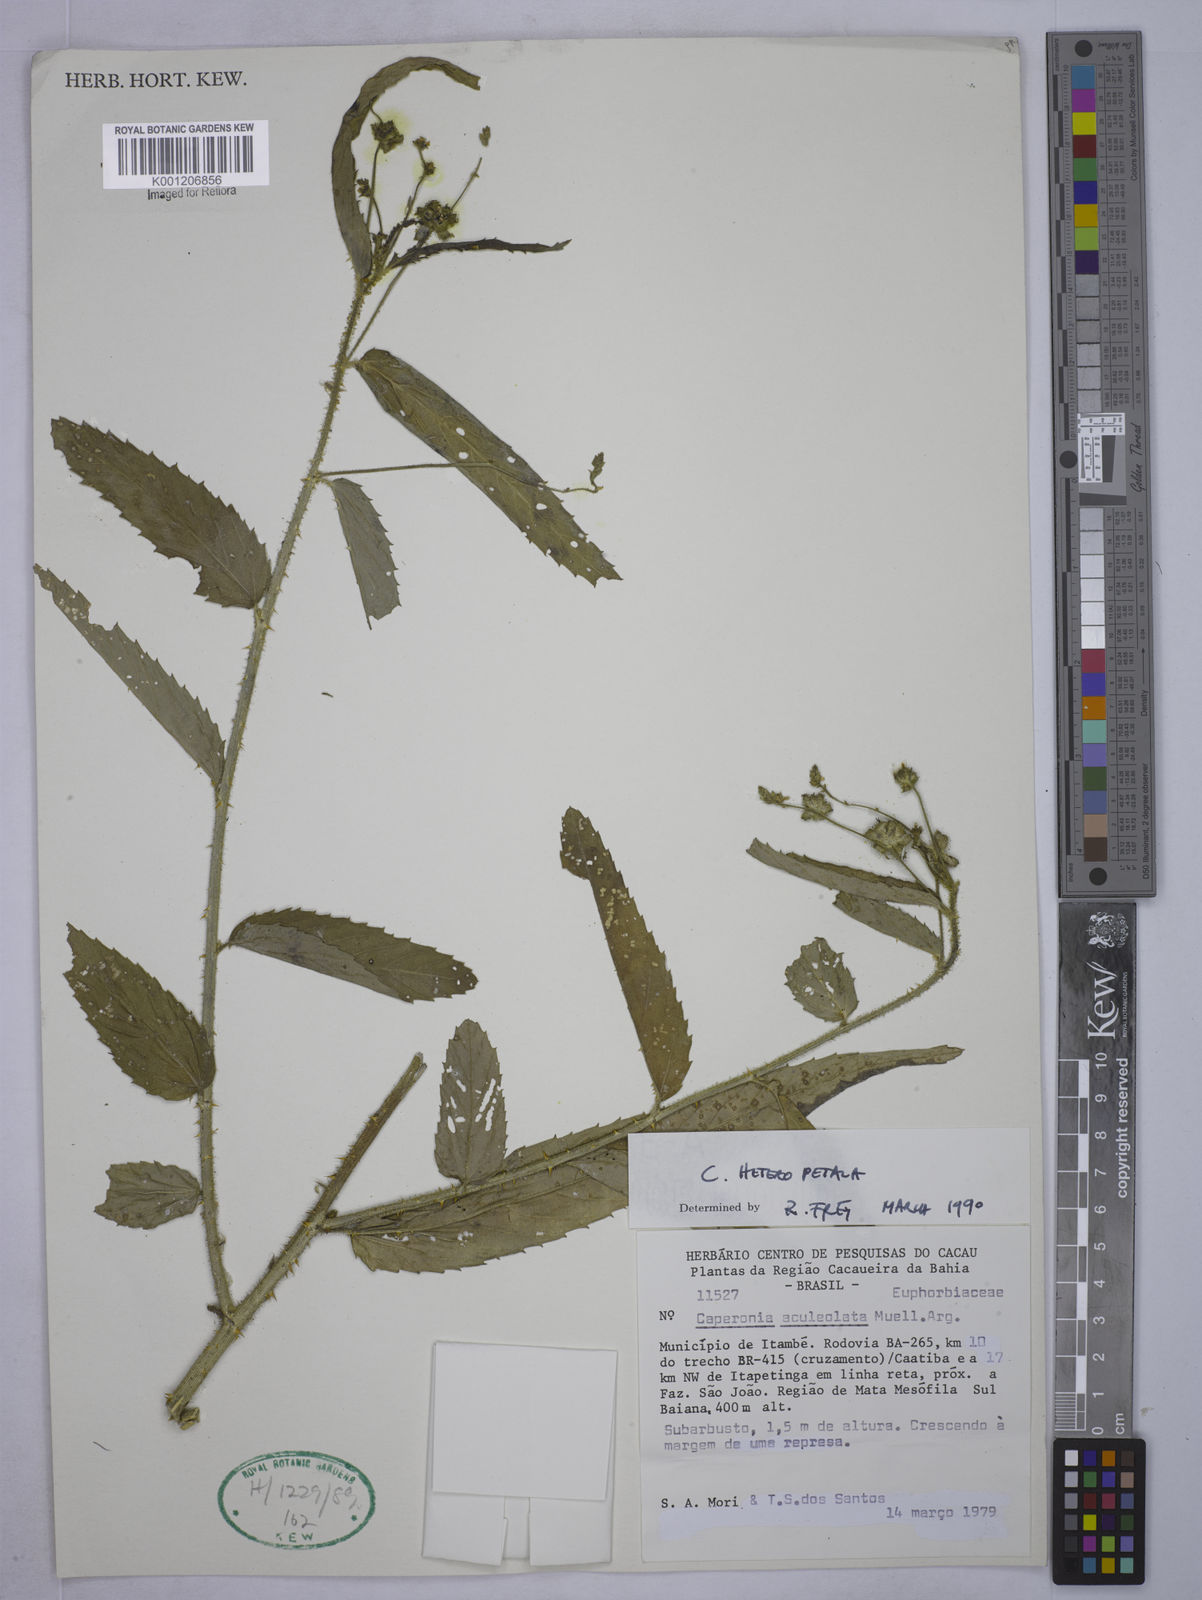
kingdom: Plantae
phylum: Tracheophyta
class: Magnoliopsida
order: Malpighiales
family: Euphorbiaceae
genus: Caperonia
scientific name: Caperonia heteropetala
